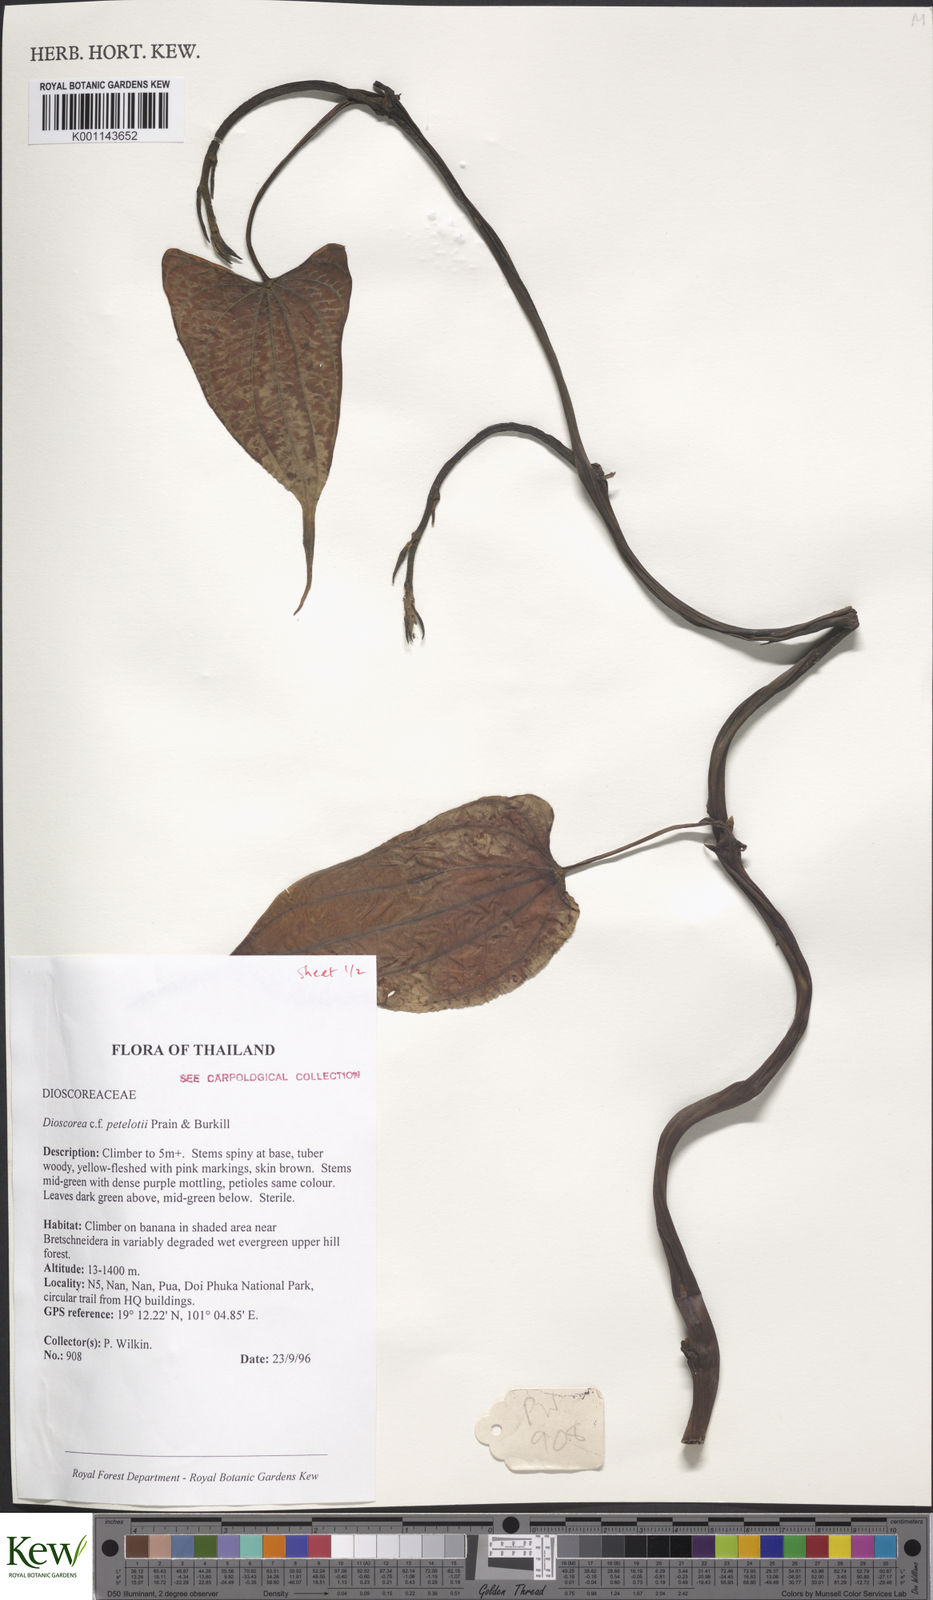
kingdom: Plantae
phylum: Tracheophyta
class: Liliopsida
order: Dioscoreales
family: Dioscoreaceae
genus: Dioscorea
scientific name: Dioscorea petelotii
